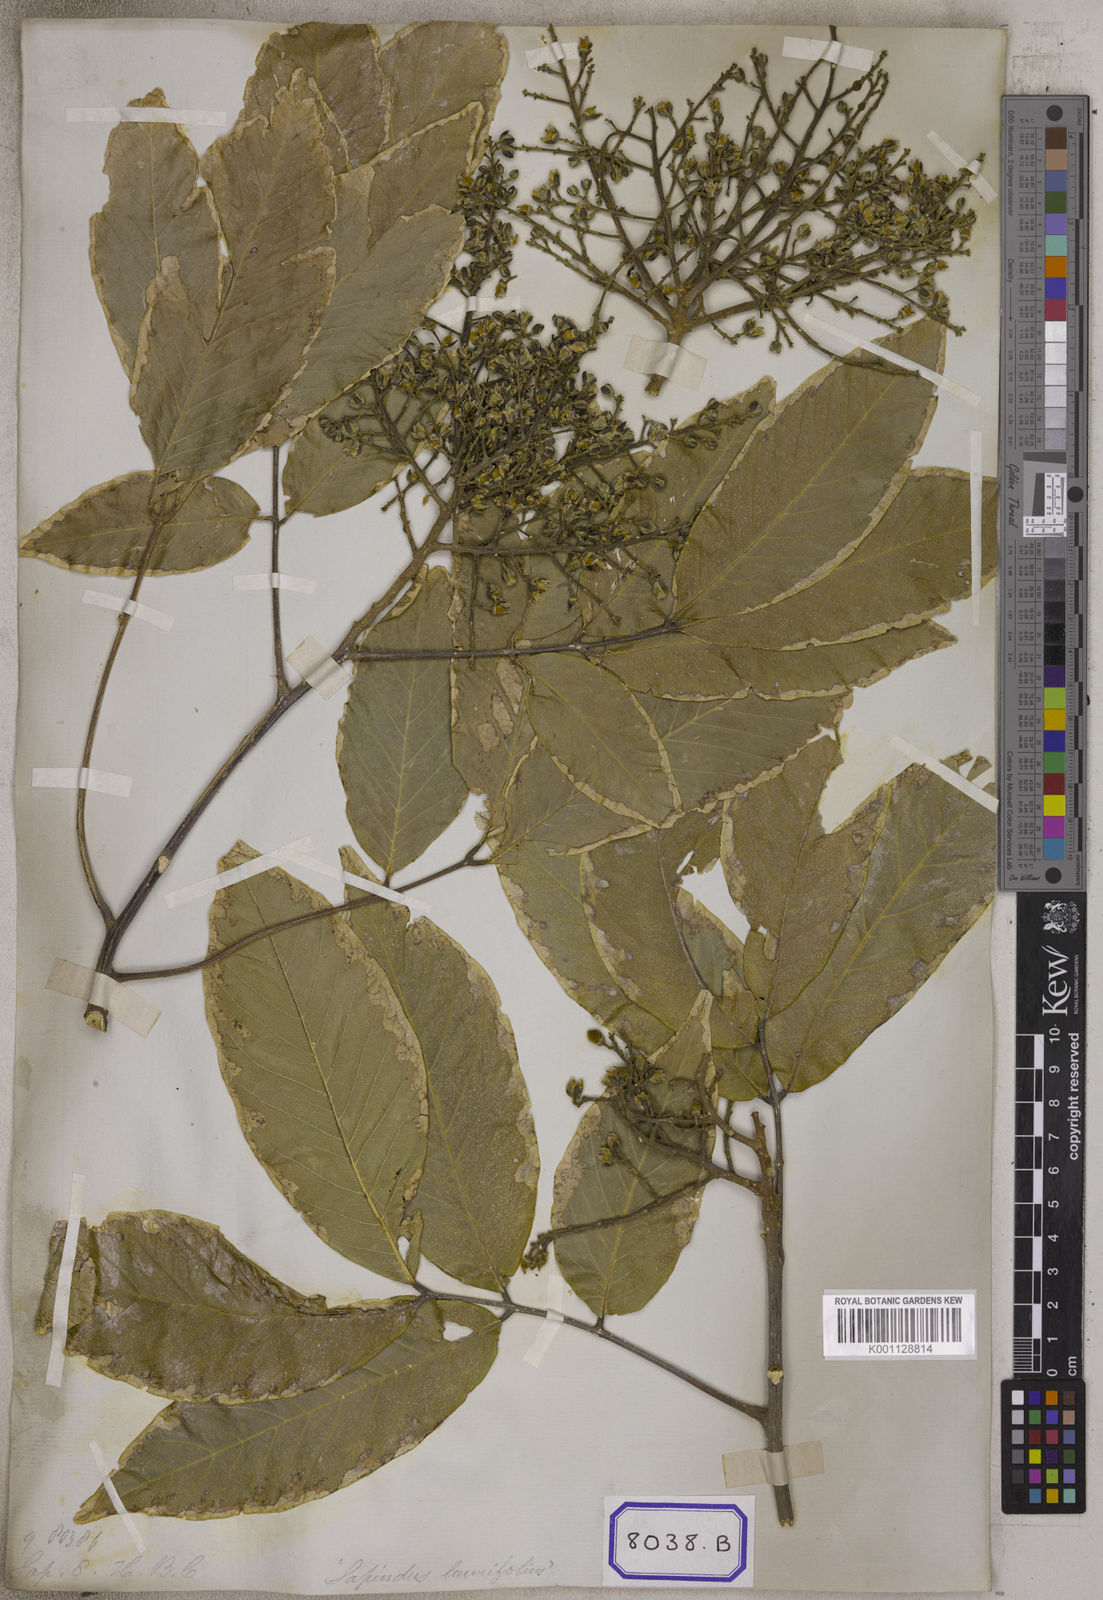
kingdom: Plantae
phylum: Tracheophyta
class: Magnoliopsida
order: Sapindales
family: Sapindaceae
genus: Sapindus
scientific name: Sapindus trifoliatus
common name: Three-leaf soapberry
